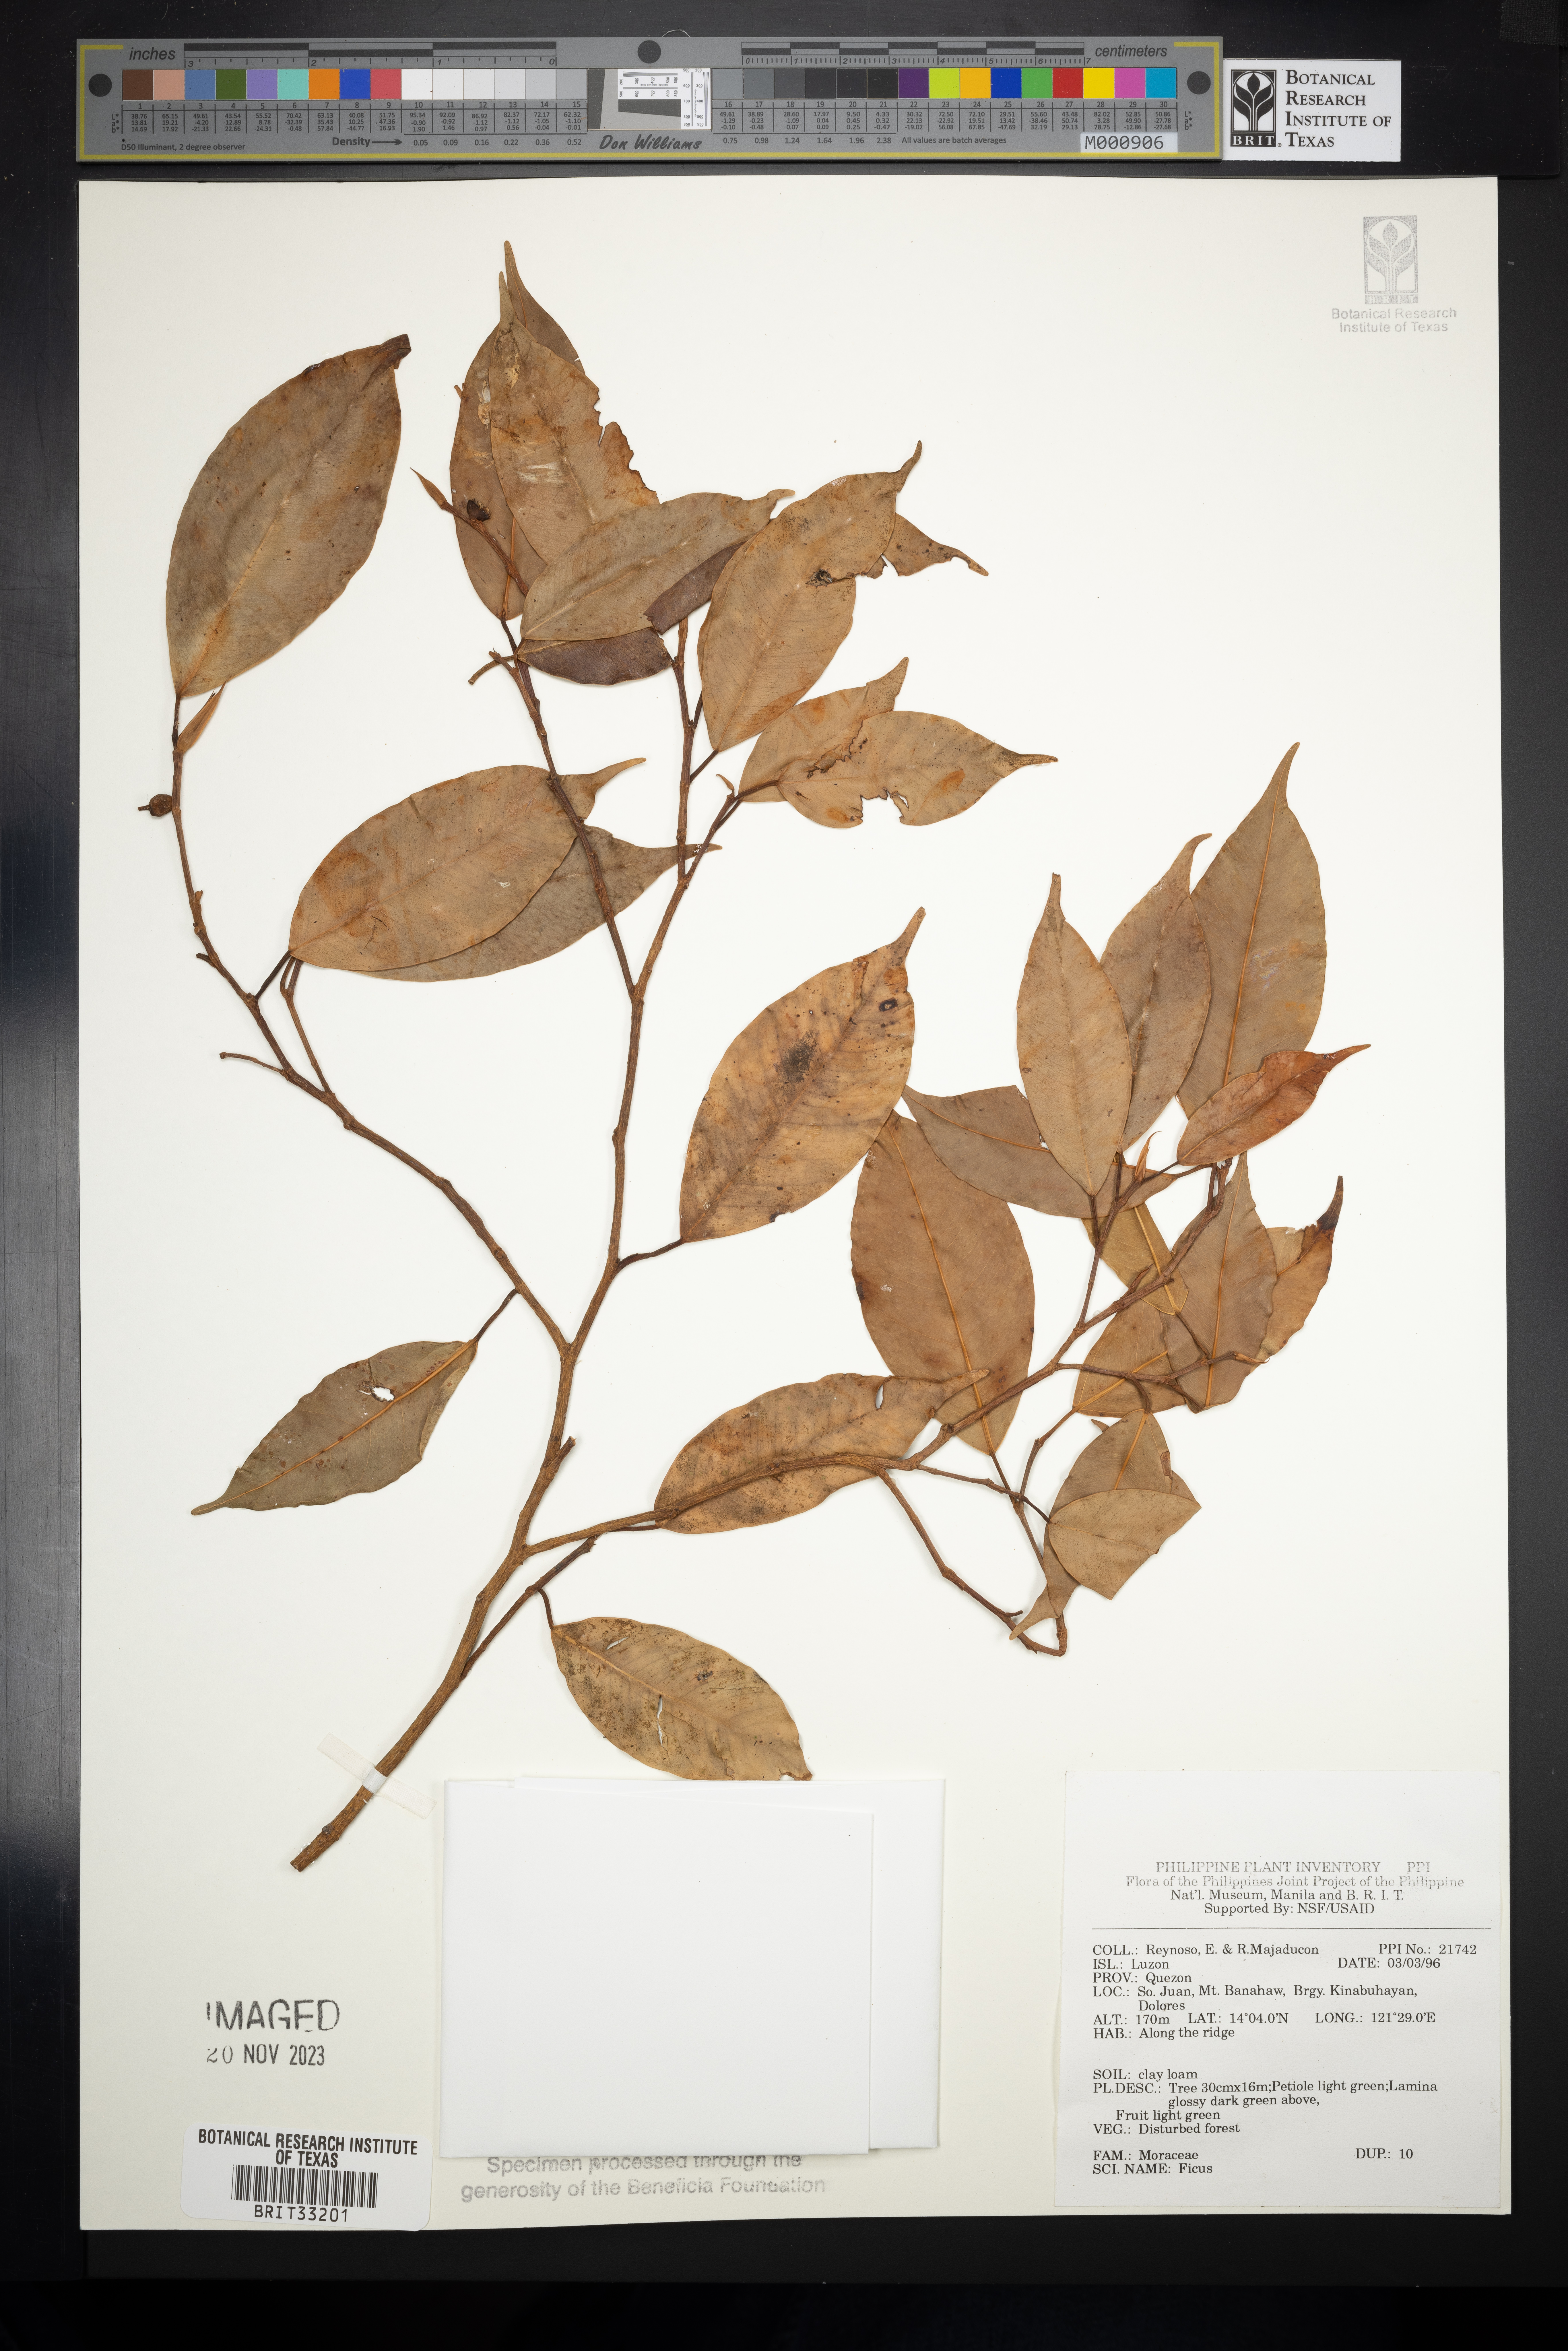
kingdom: Plantae
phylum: Tracheophyta
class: Magnoliopsida
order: Rosales
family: Moraceae
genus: Ficus
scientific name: Ficus
